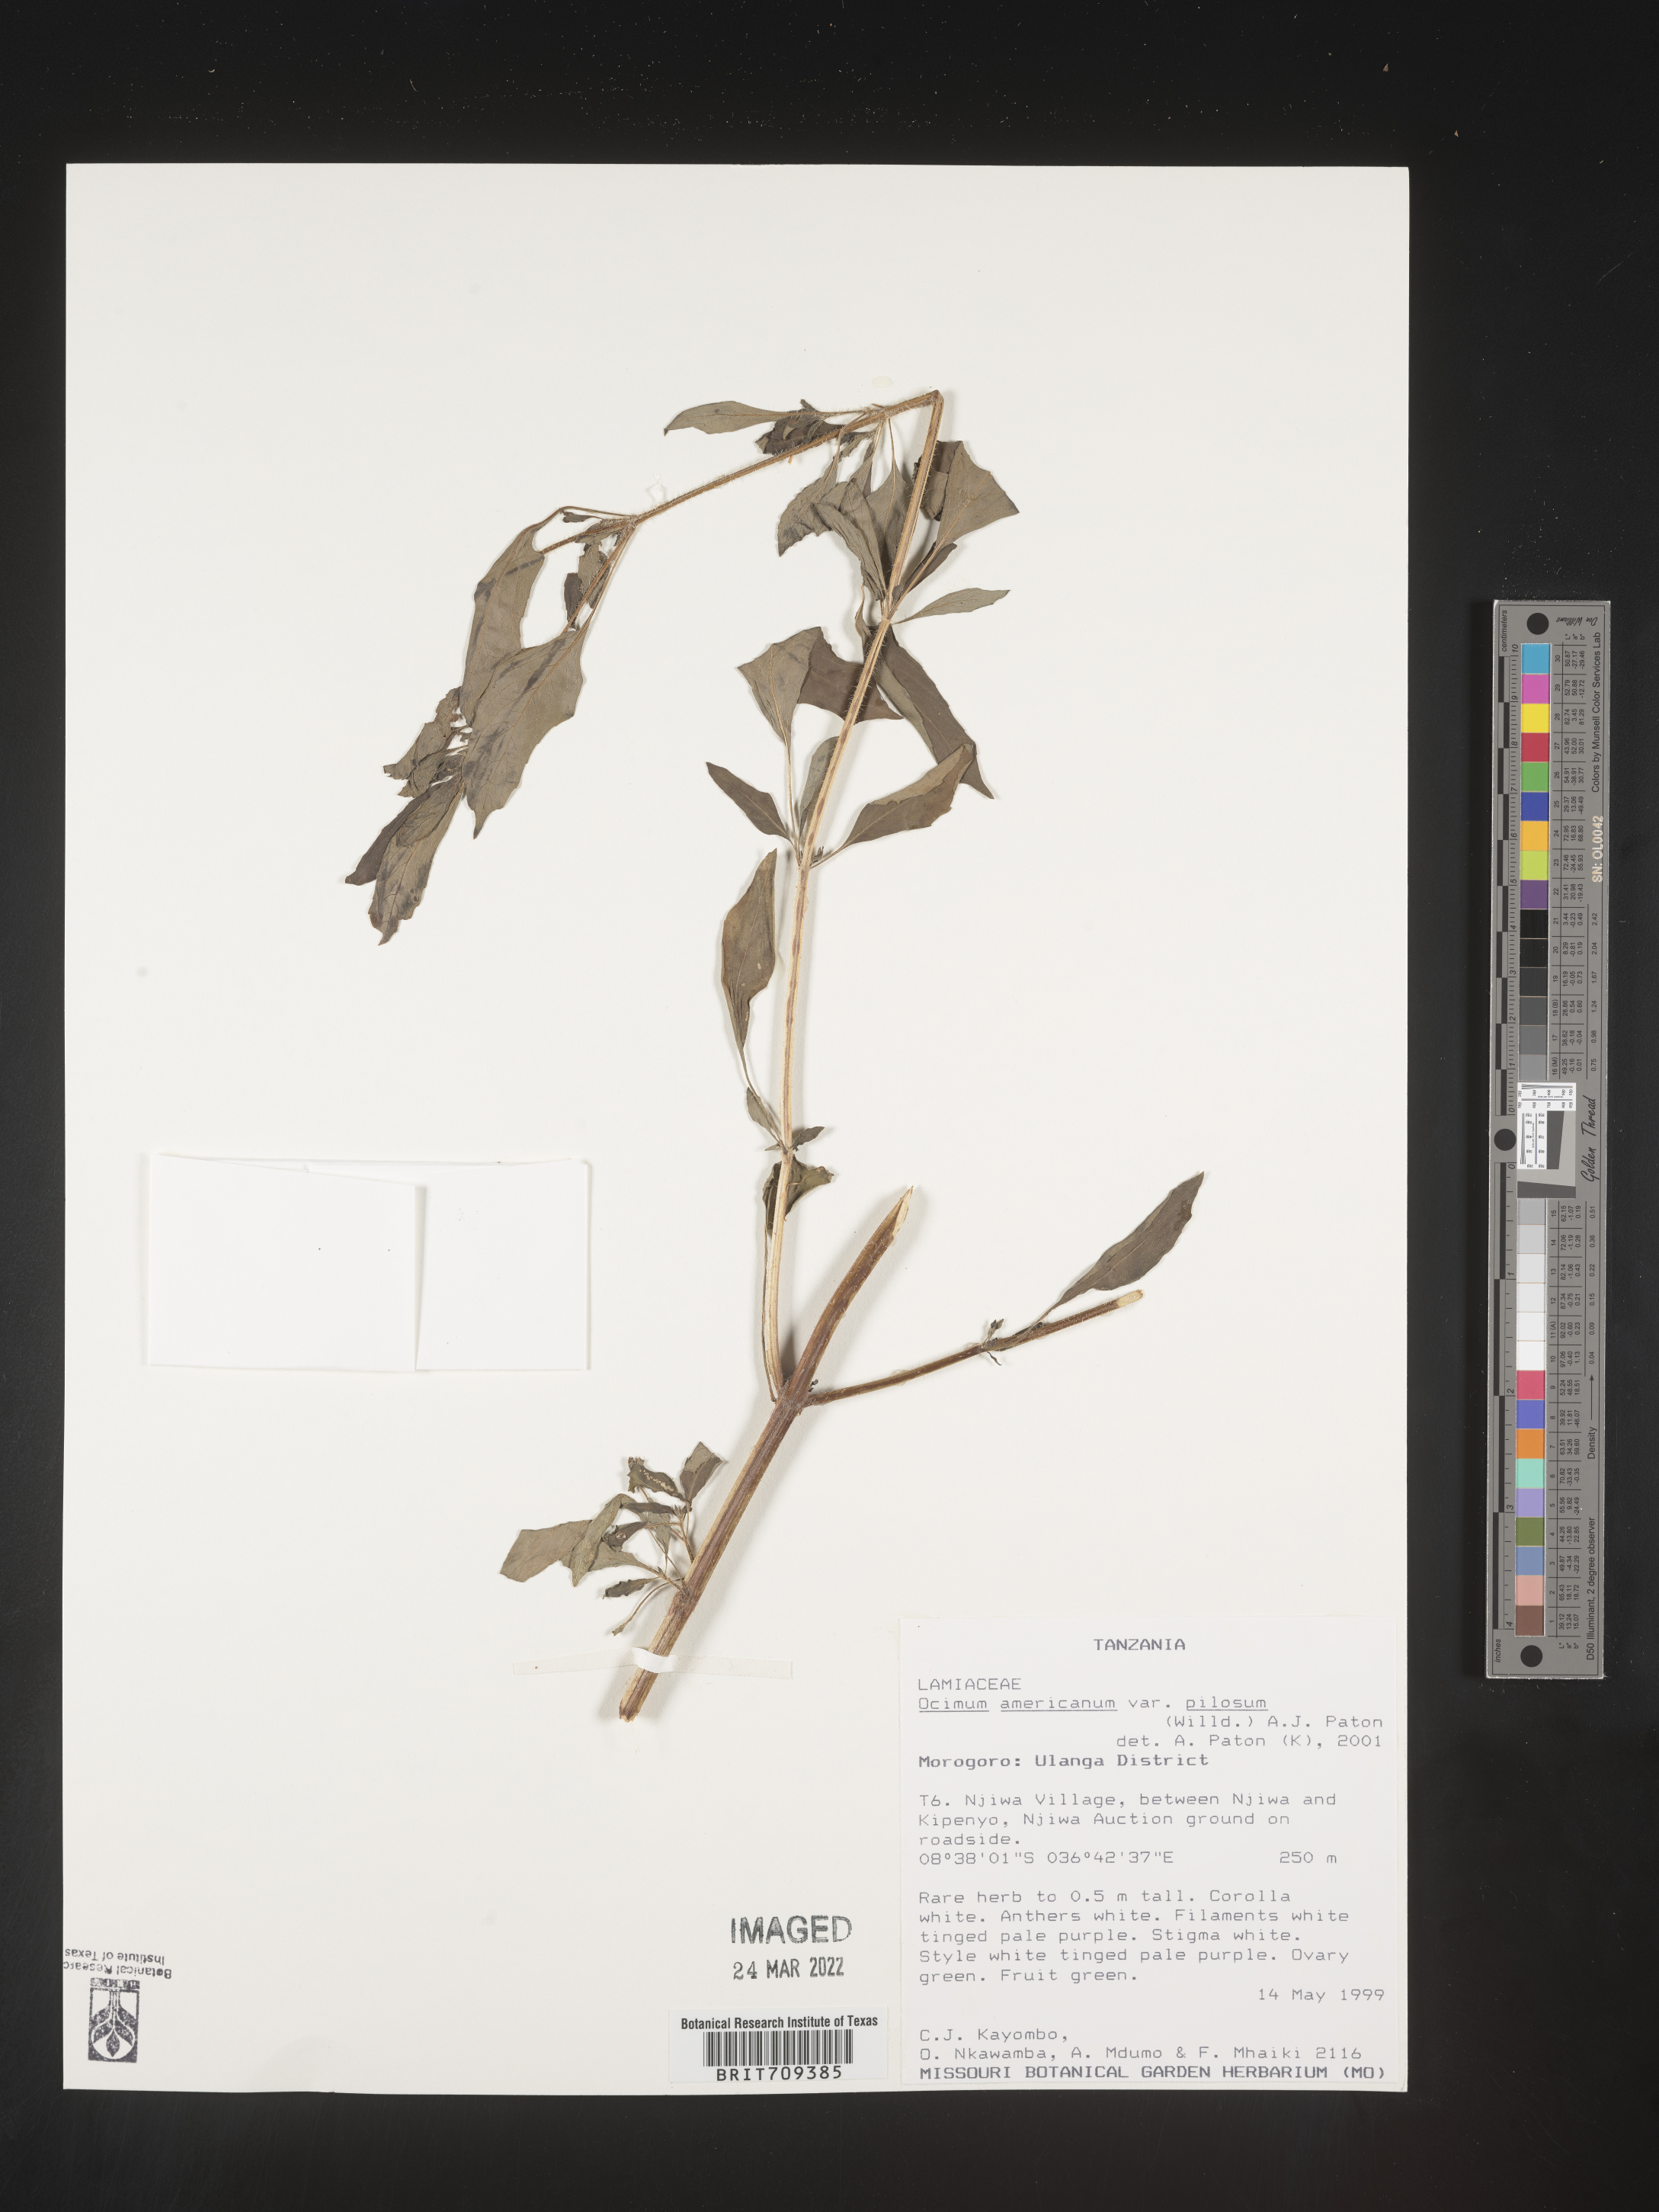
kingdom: Plantae
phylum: Tracheophyta
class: Magnoliopsida
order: Lamiales
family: Lamiaceae
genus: Ocimum
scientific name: Ocimum
